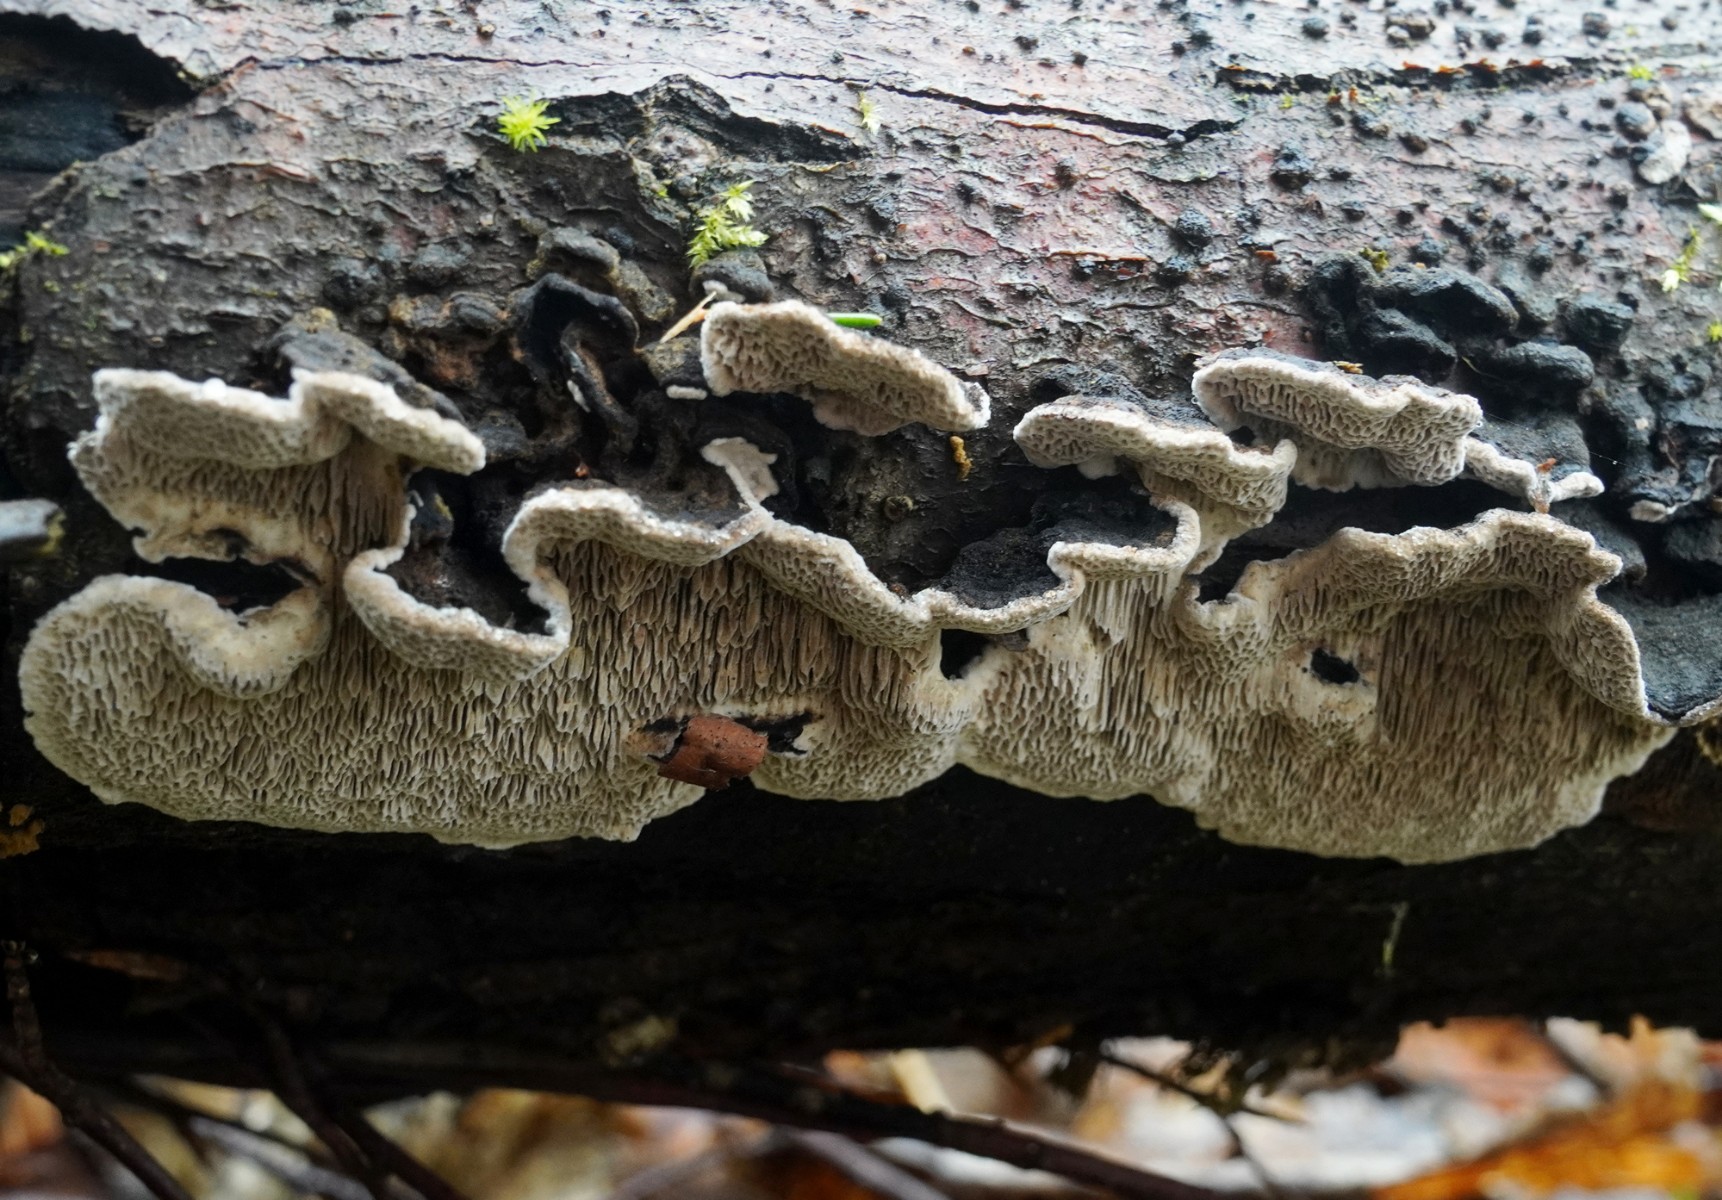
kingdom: Fungi
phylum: Basidiomycota
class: Agaricomycetes
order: Polyporales
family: Polyporaceae
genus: Podofomes
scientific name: Podofomes mollis
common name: blød begporesvamp
